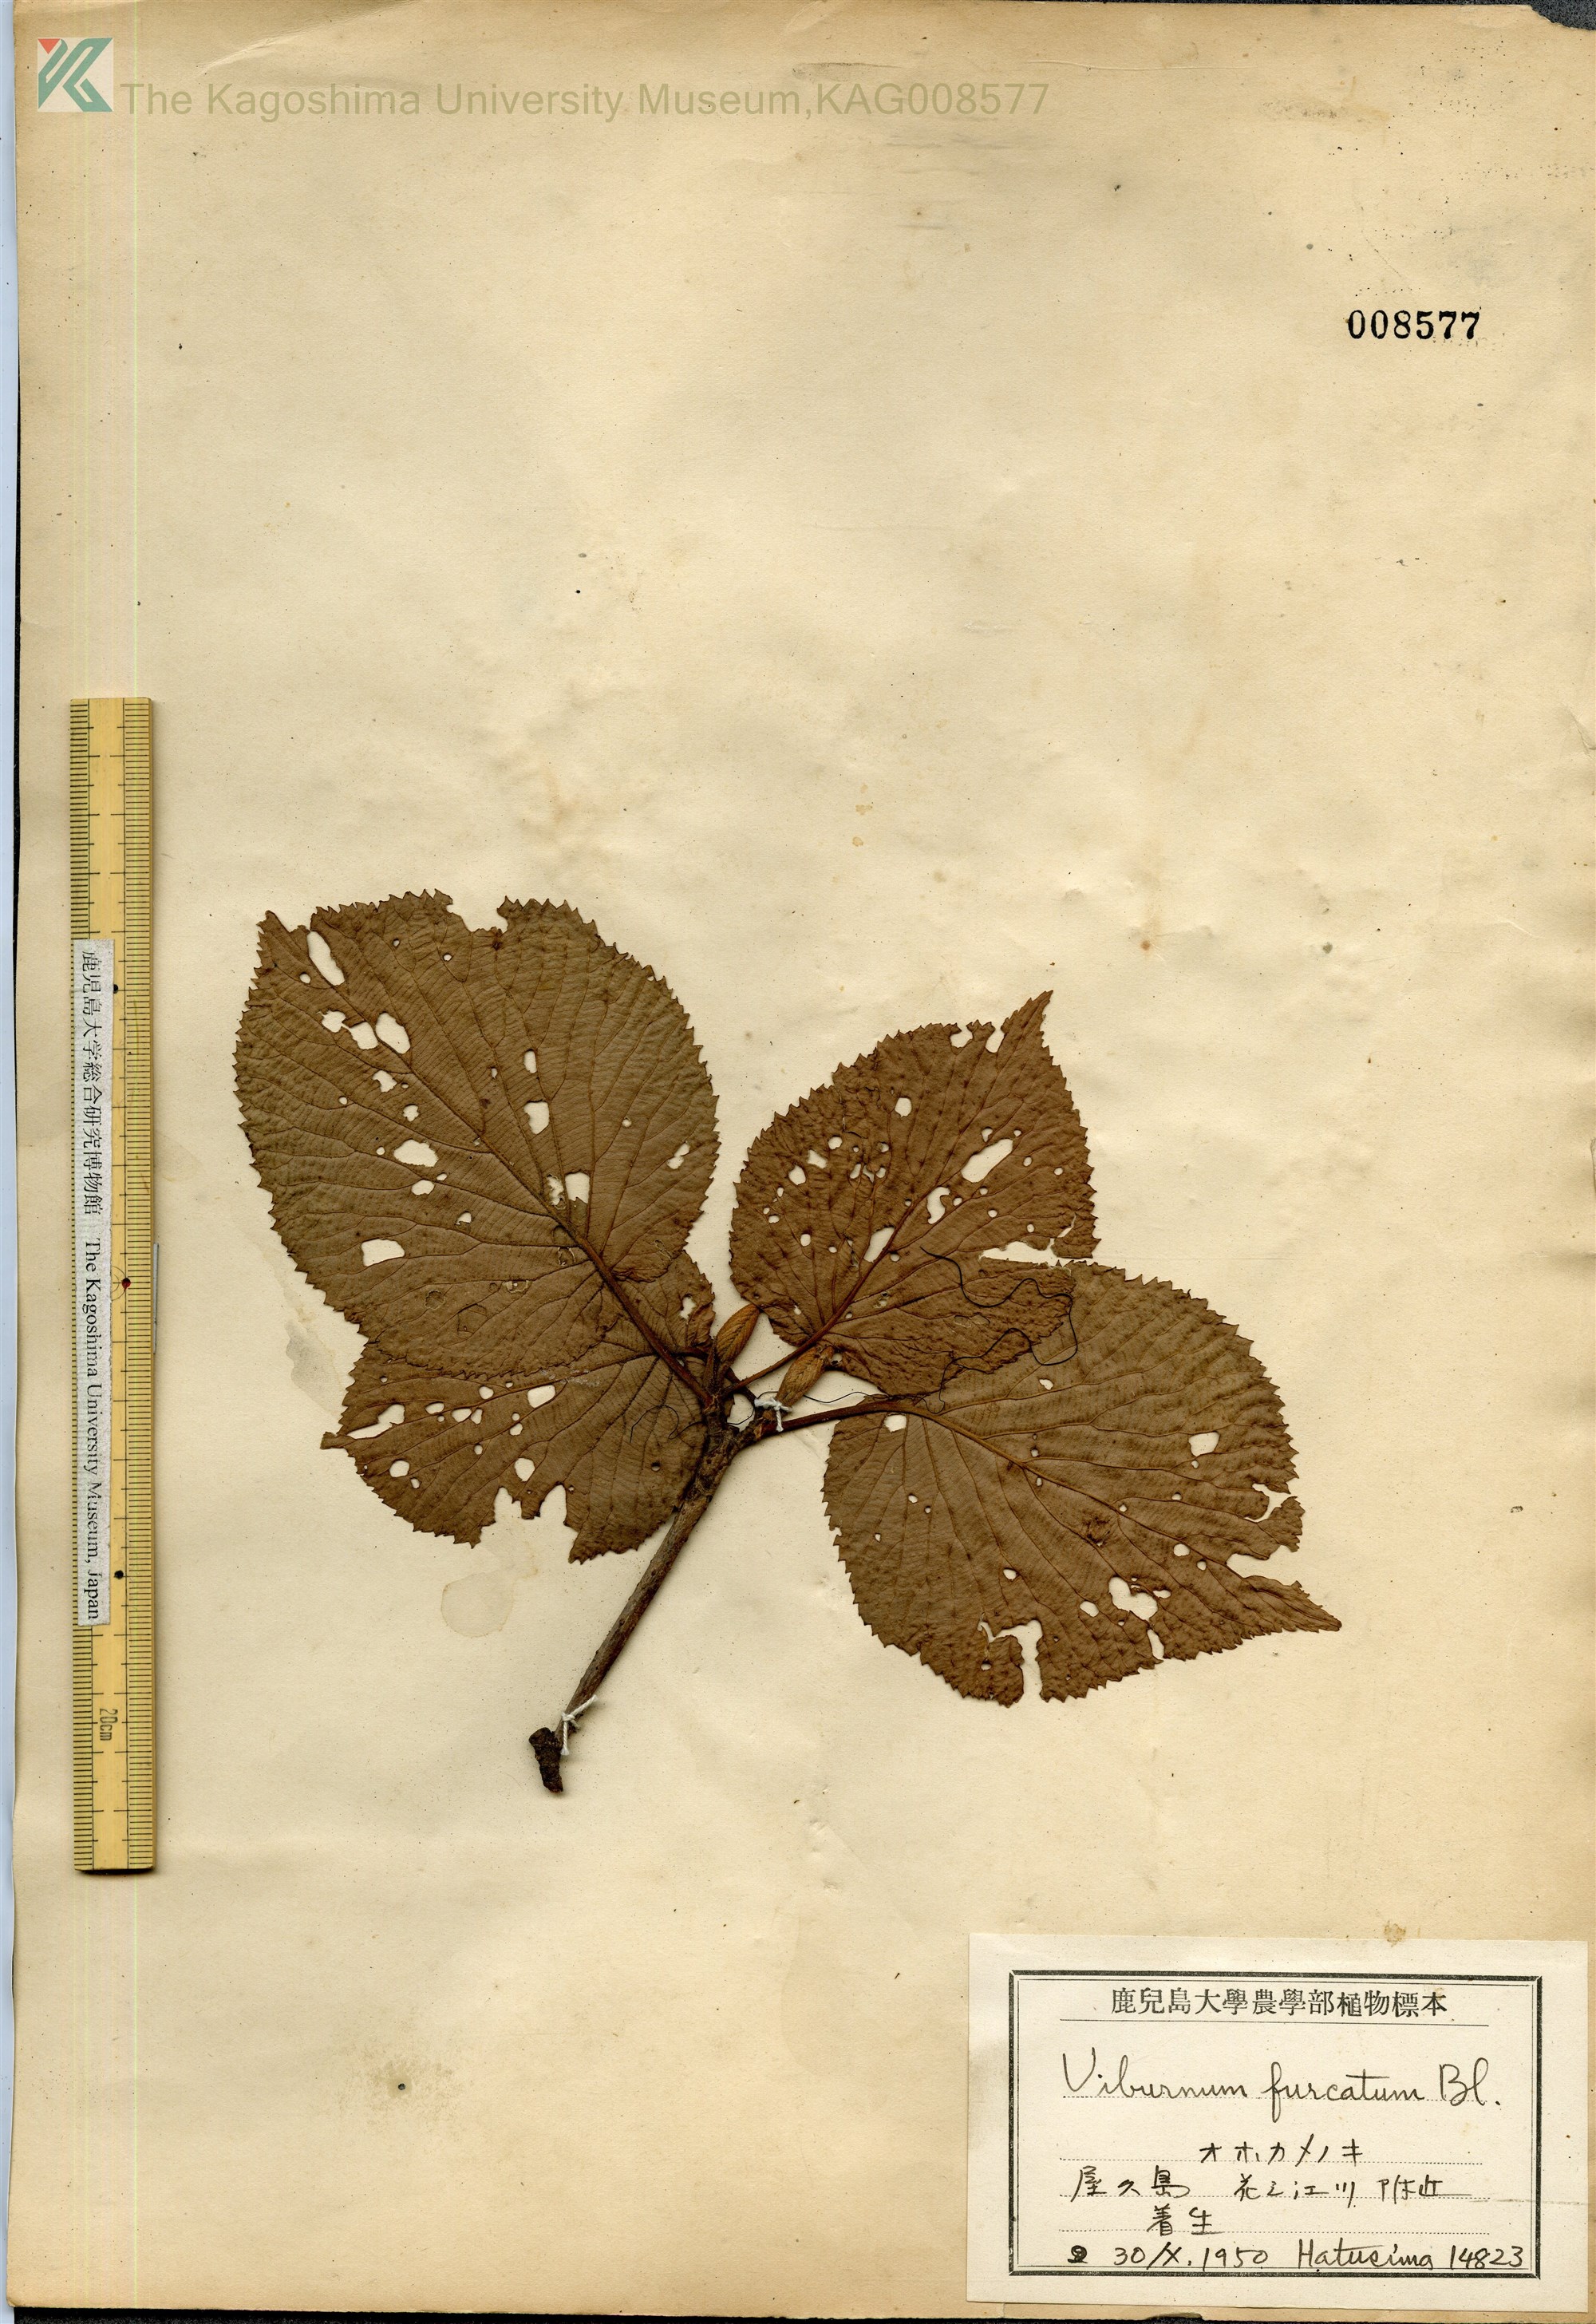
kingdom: Plantae
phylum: Tracheophyta
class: Magnoliopsida
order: Dipsacales
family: Viburnaceae
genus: Viburnum
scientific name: Viburnum furcatum
